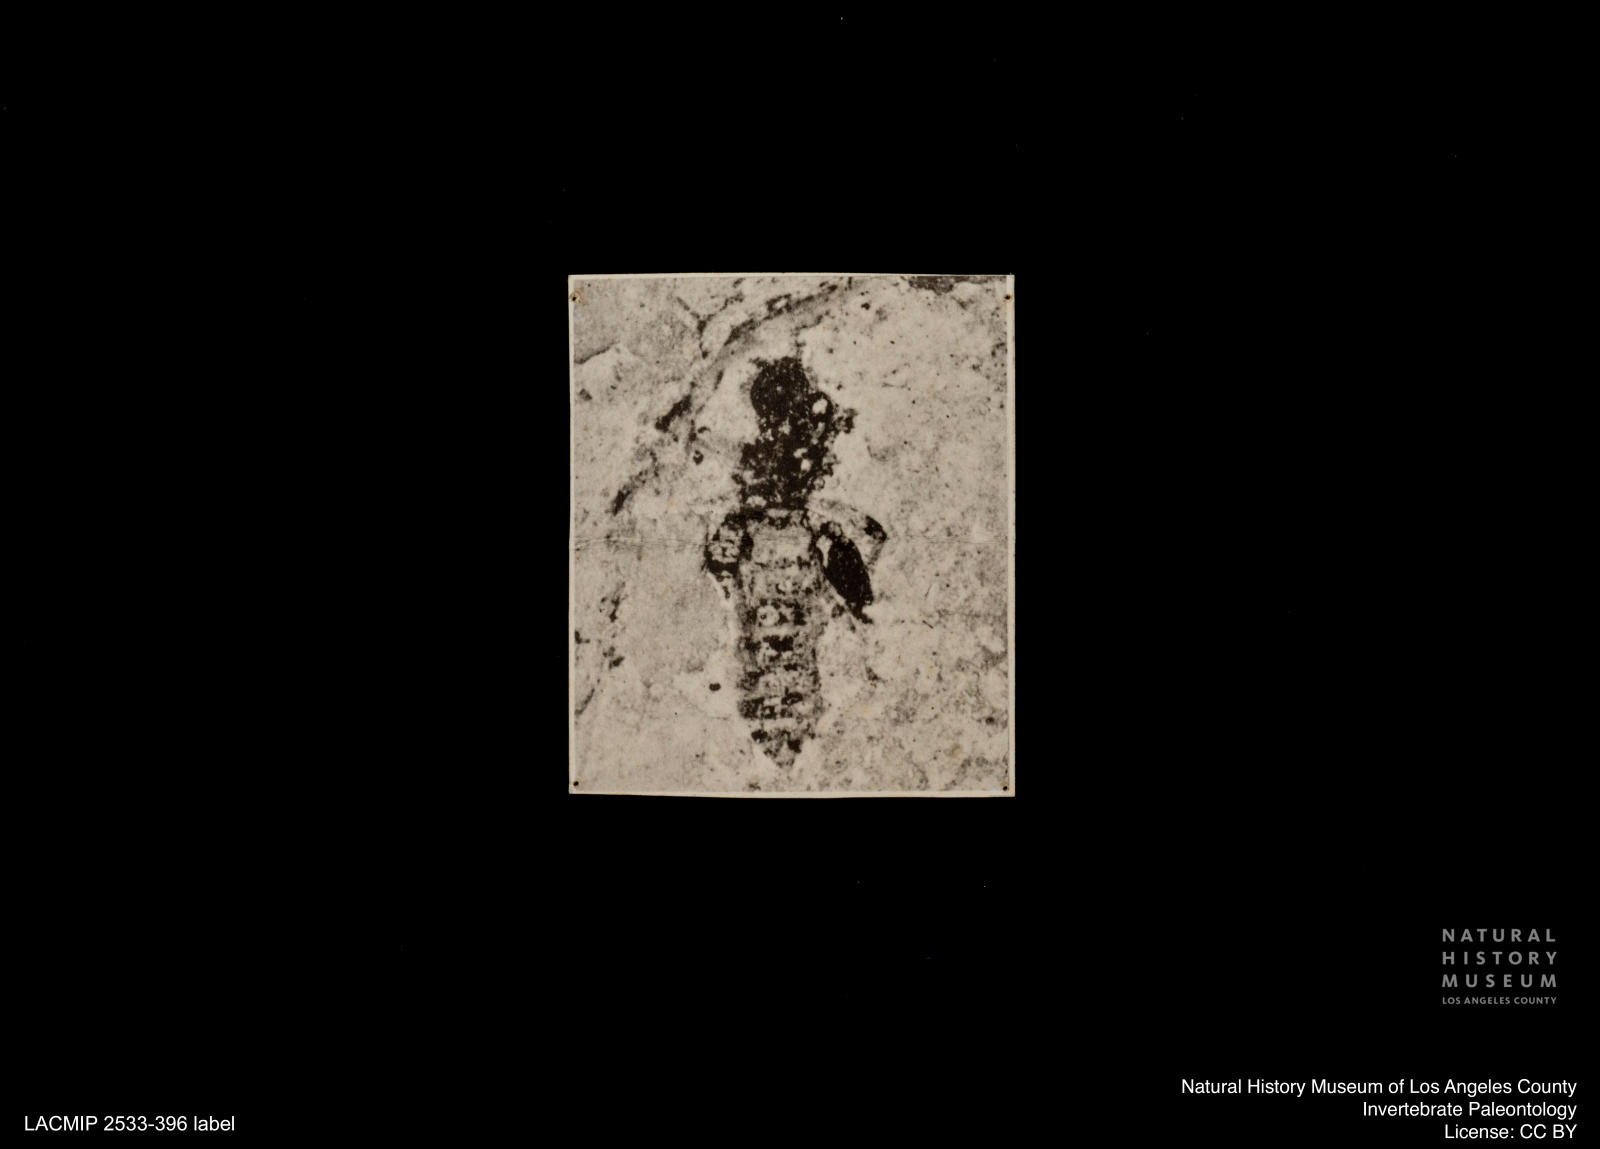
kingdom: Animalia
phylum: Arthropoda
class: Insecta
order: Diptera
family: Ceratopogonidae
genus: Serromyia
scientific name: Serromyia alphea
